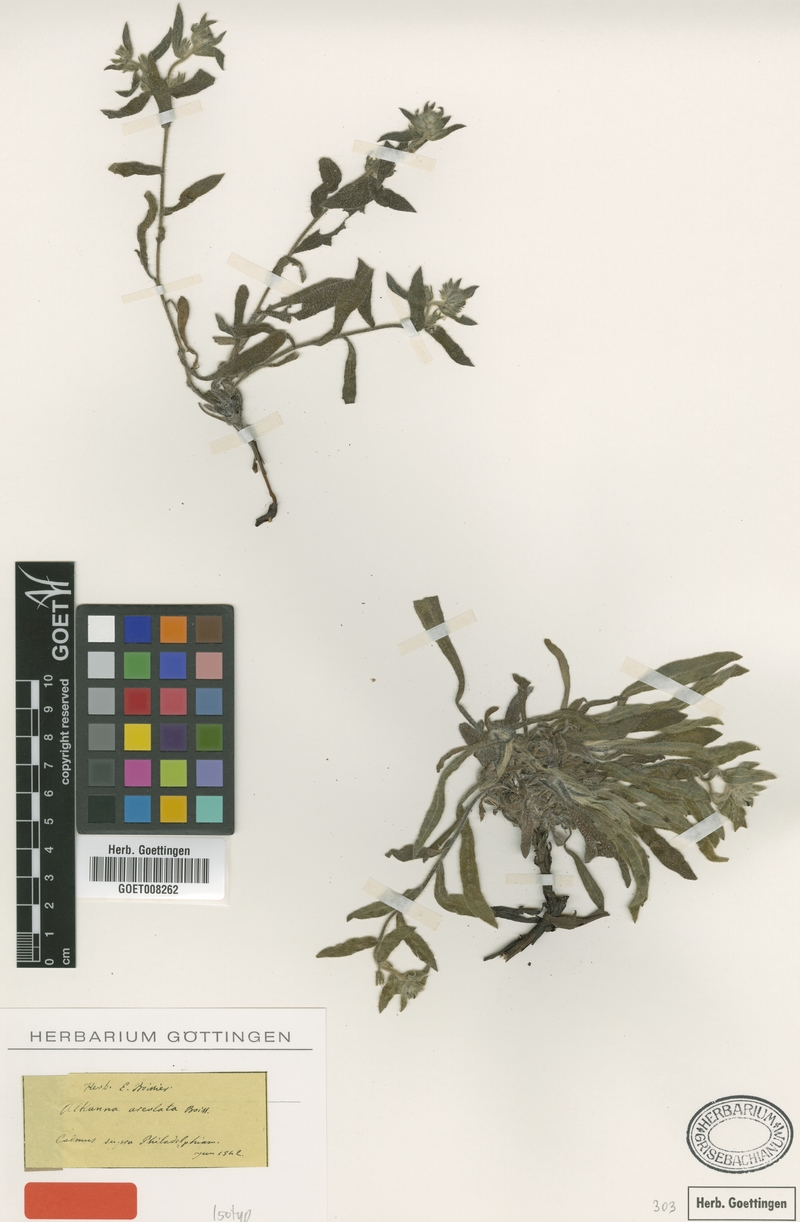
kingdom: Plantae
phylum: Tracheophyta
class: Magnoliopsida
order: Boraginales
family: Boraginaceae
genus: Alkanna
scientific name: Alkanna areolata
